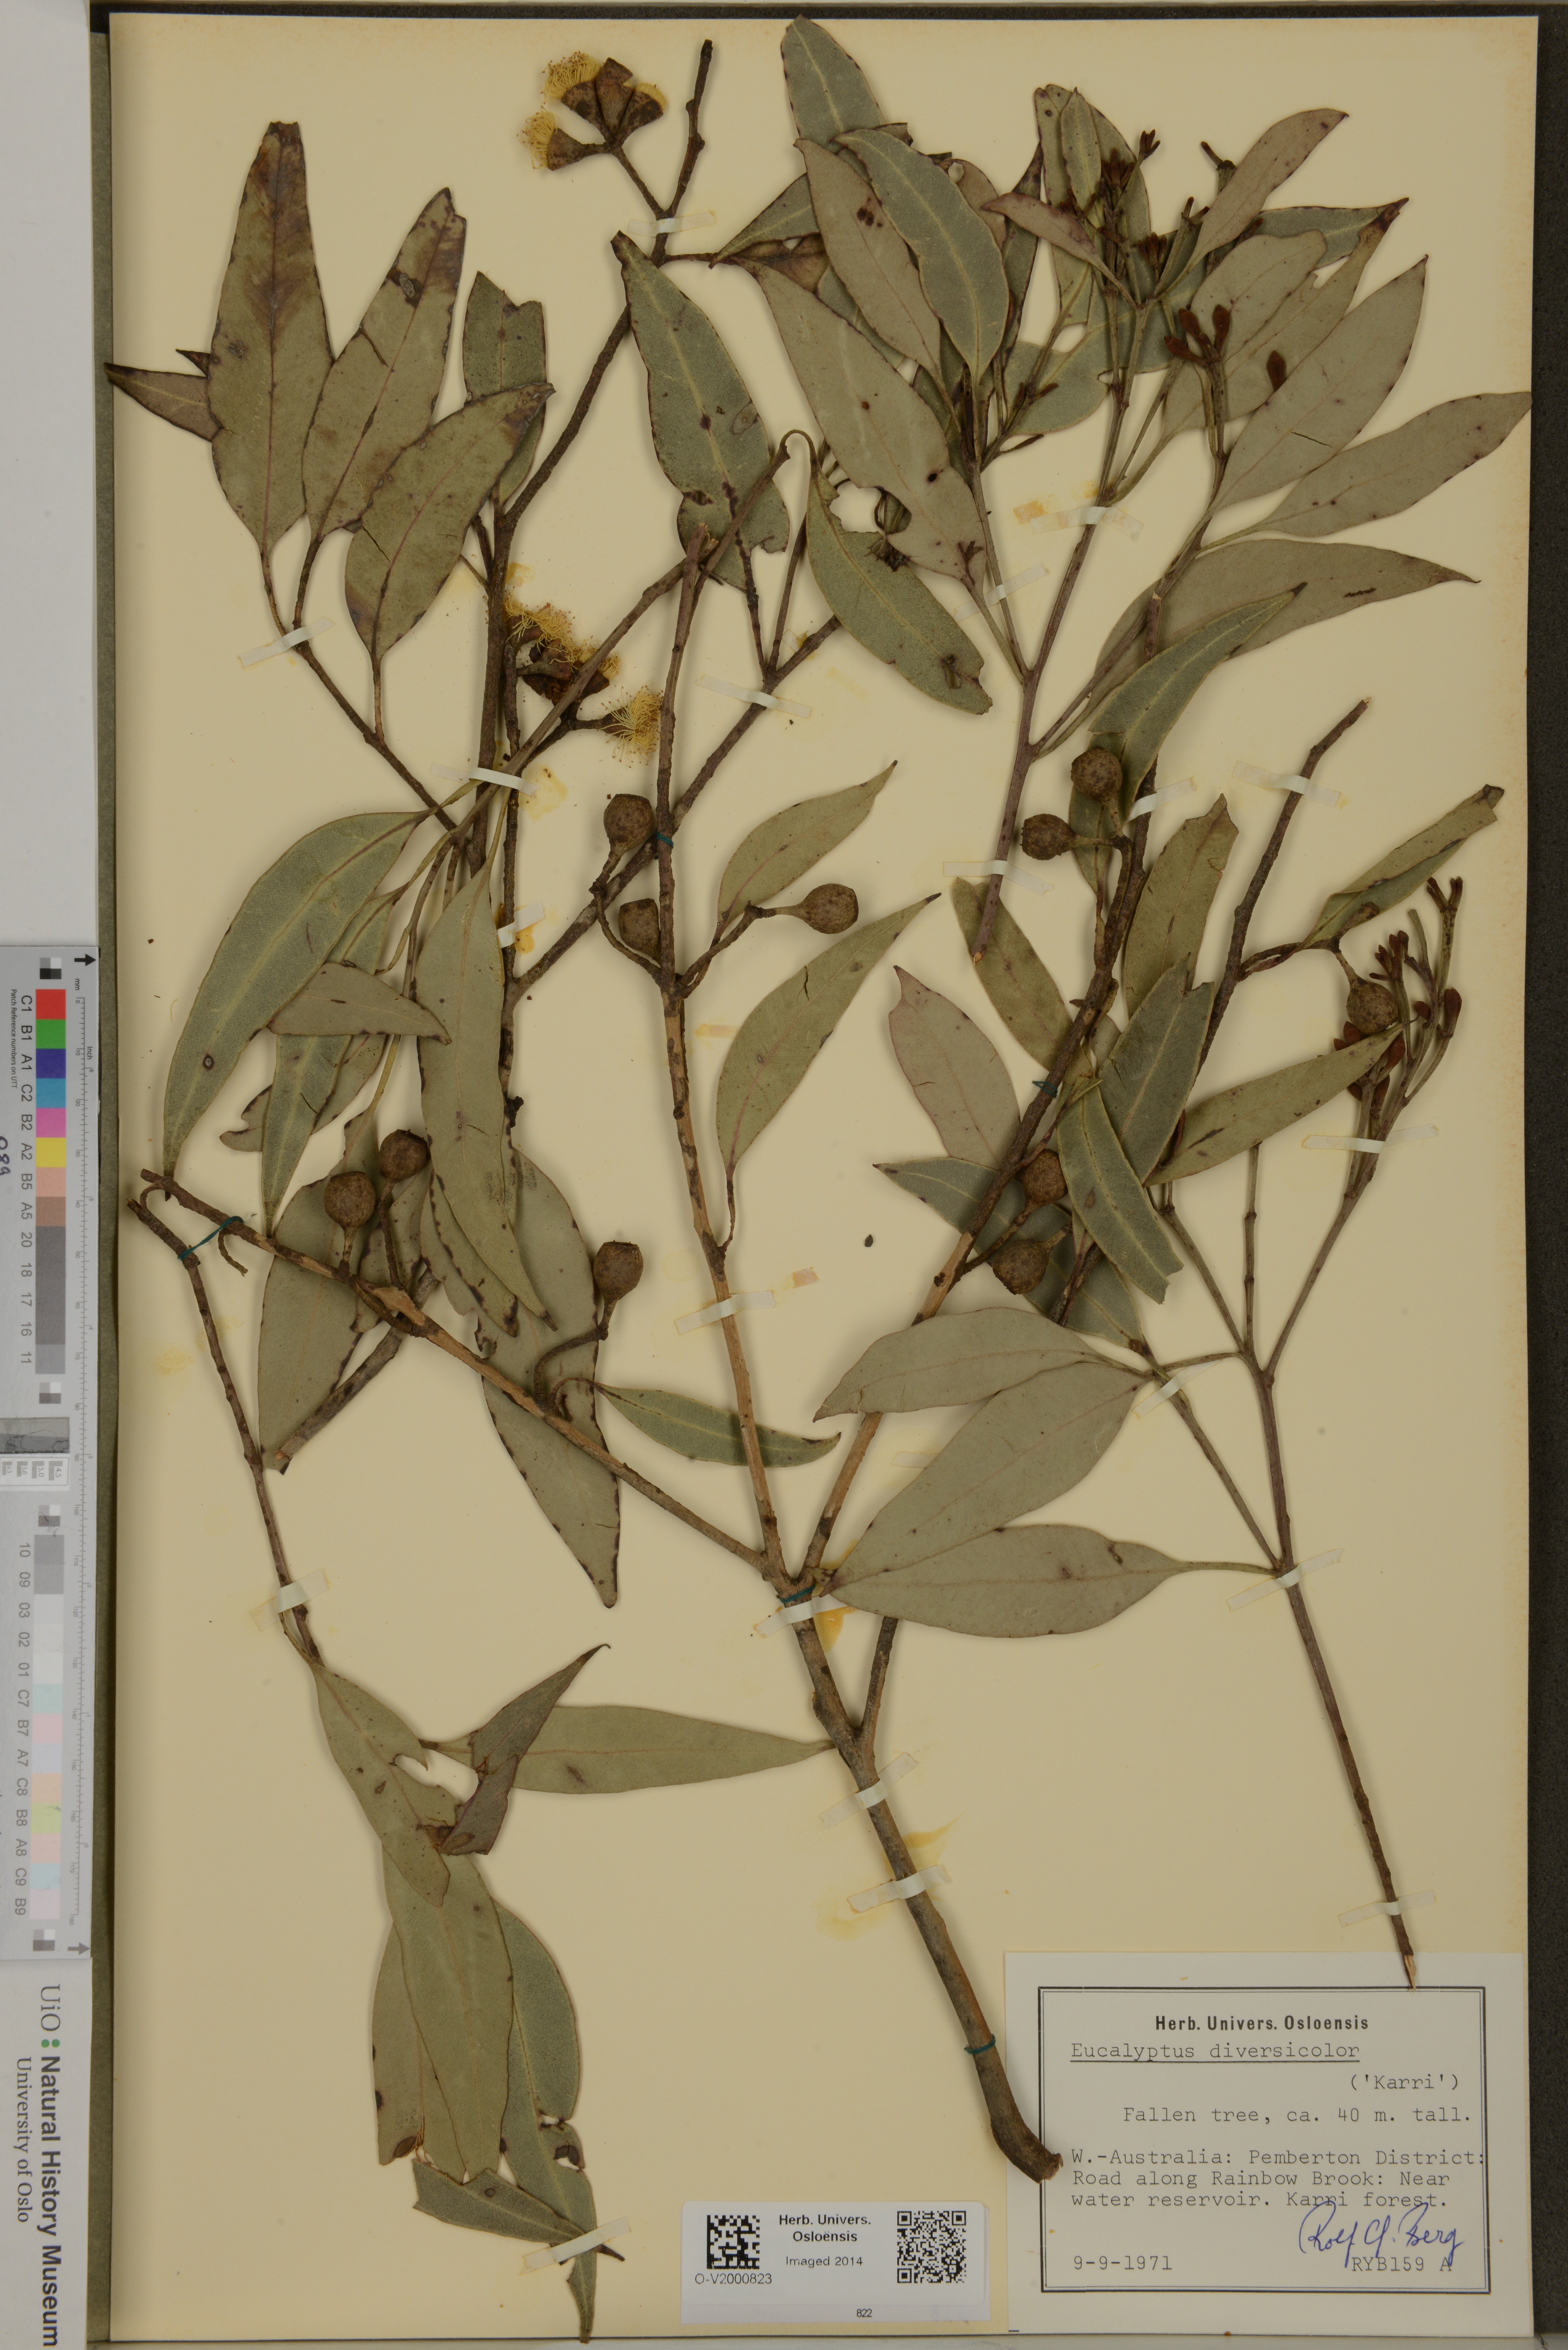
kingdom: Plantae
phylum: Tracheophyta
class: Magnoliopsida
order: Myrtales
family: Myrtaceae
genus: Eucalyptus
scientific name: Eucalyptus diversicolor
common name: Karri
